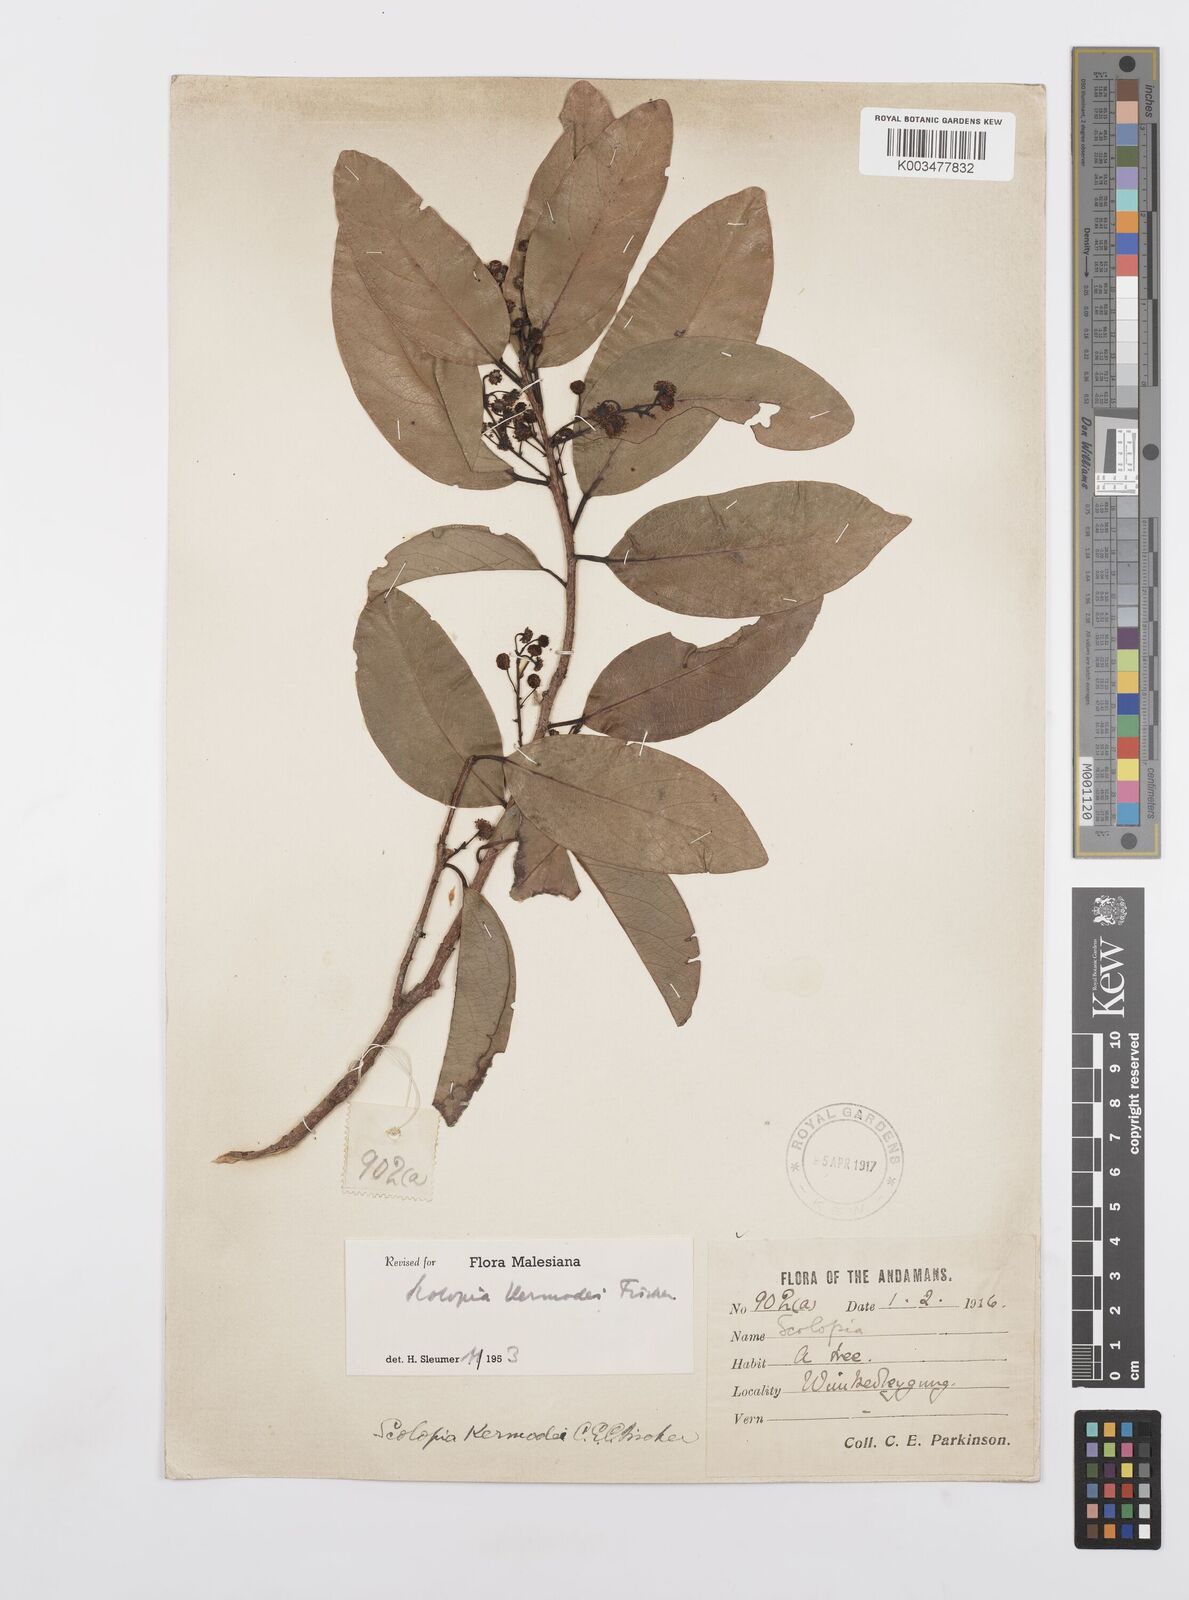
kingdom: Plantae
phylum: Tracheophyta
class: Magnoliopsida
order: Malpighiales
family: Salicaceae
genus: Scolopia
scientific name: Scolopia kermodei
